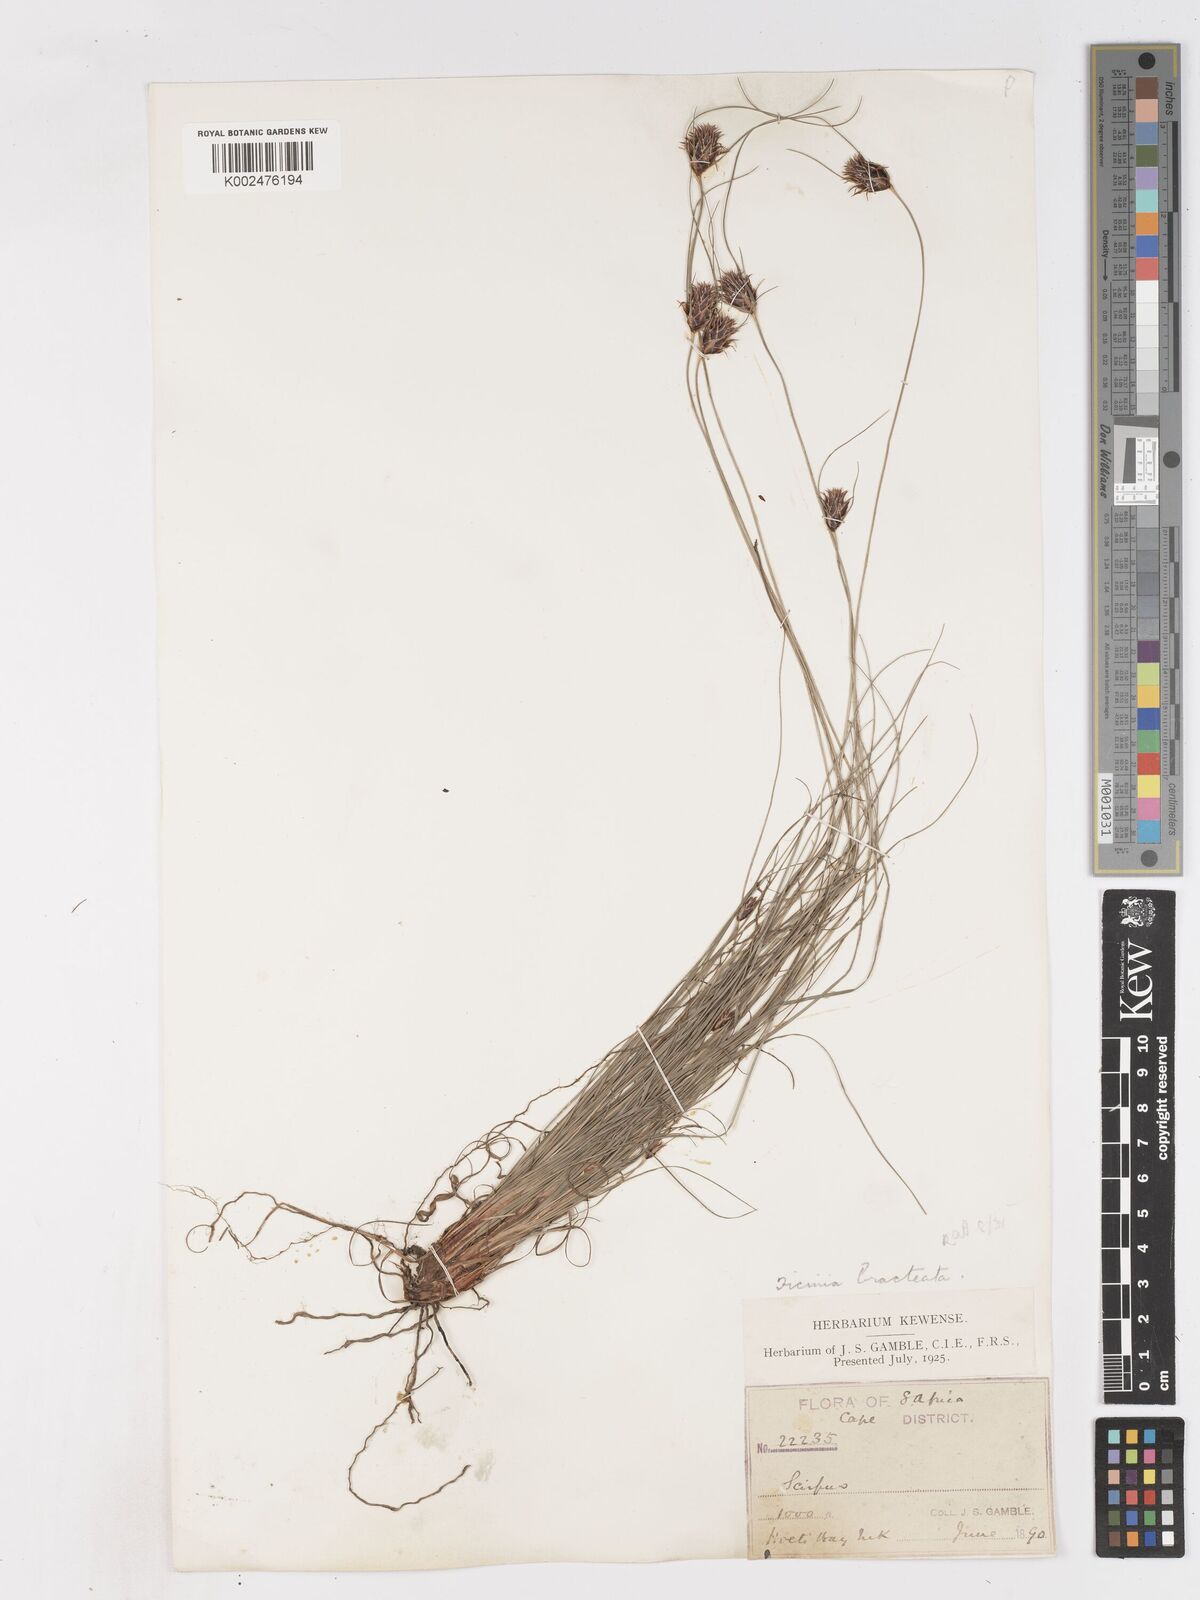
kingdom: Plantae
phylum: Tracheophyta
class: Liliopsida
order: Poales
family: Cyperaceae
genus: Ficinia
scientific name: Ficinia nigrescens
